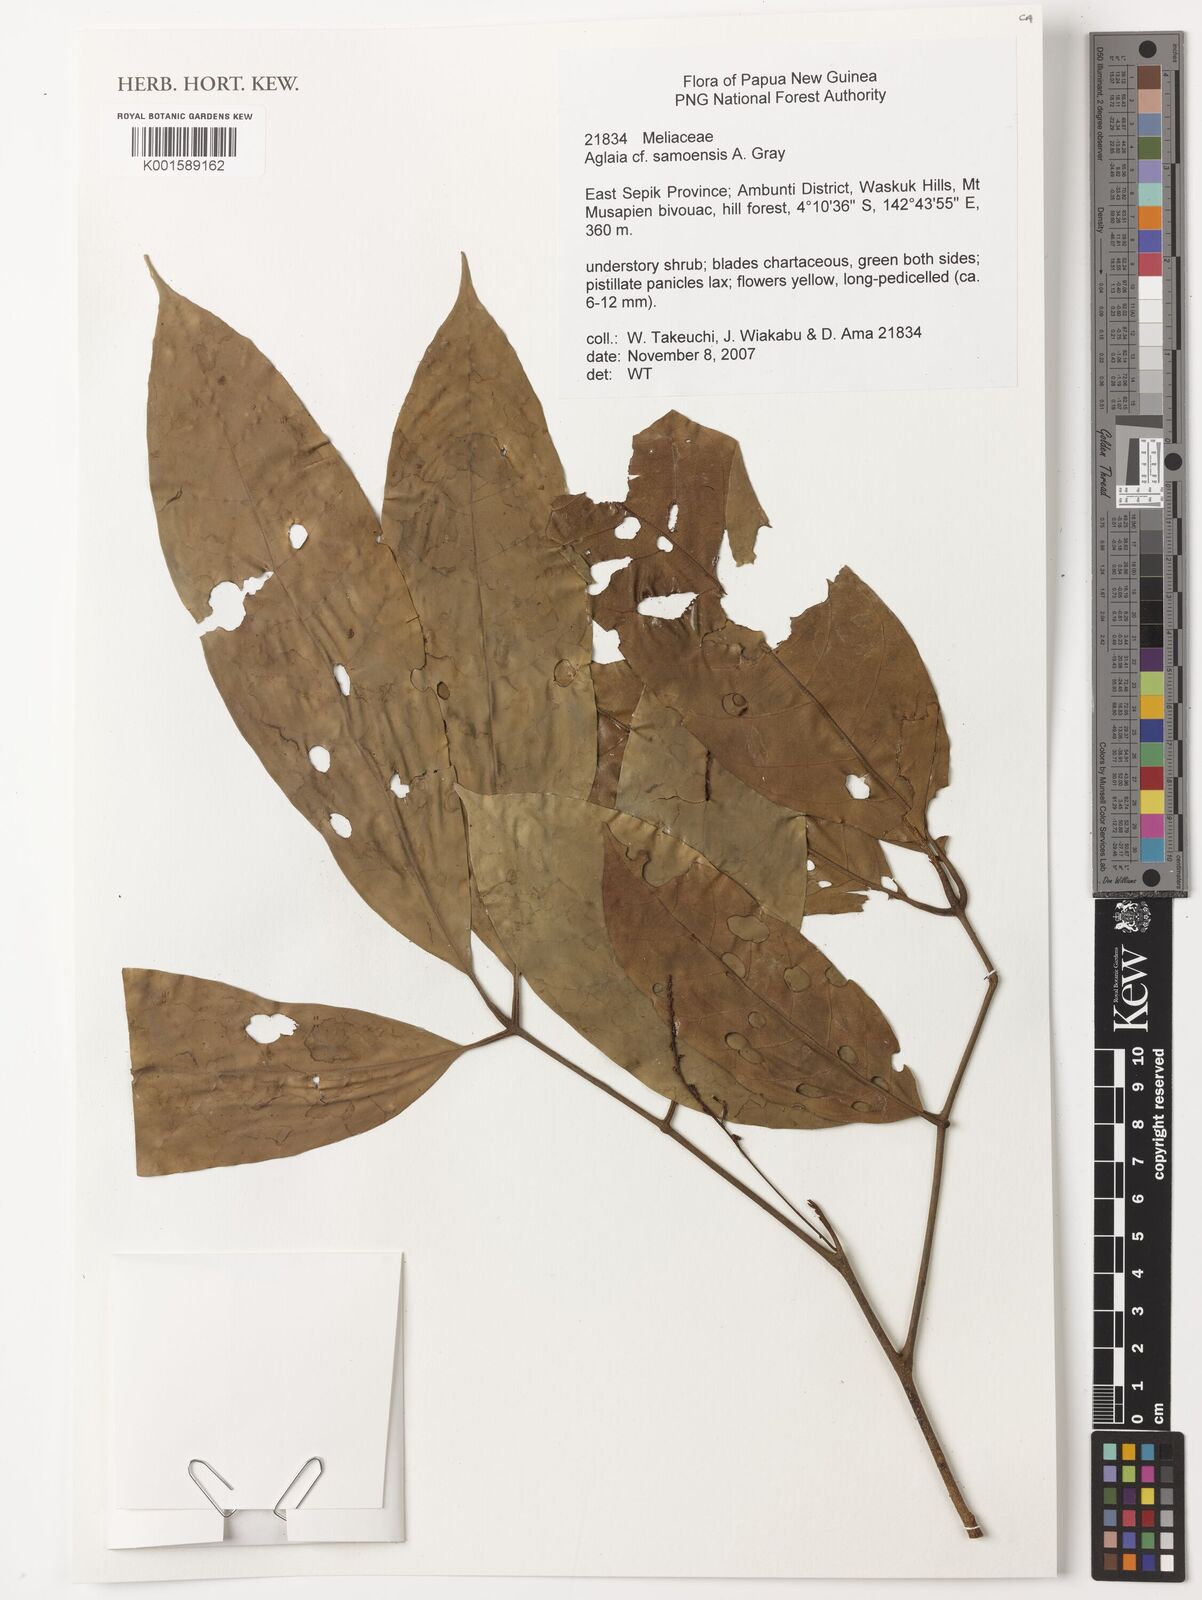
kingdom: Plantae
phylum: Tracheophyta
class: Magnoliopsida
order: Sapindales
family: Meliaceae
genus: Aglaia
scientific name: Aglaia samoensis
